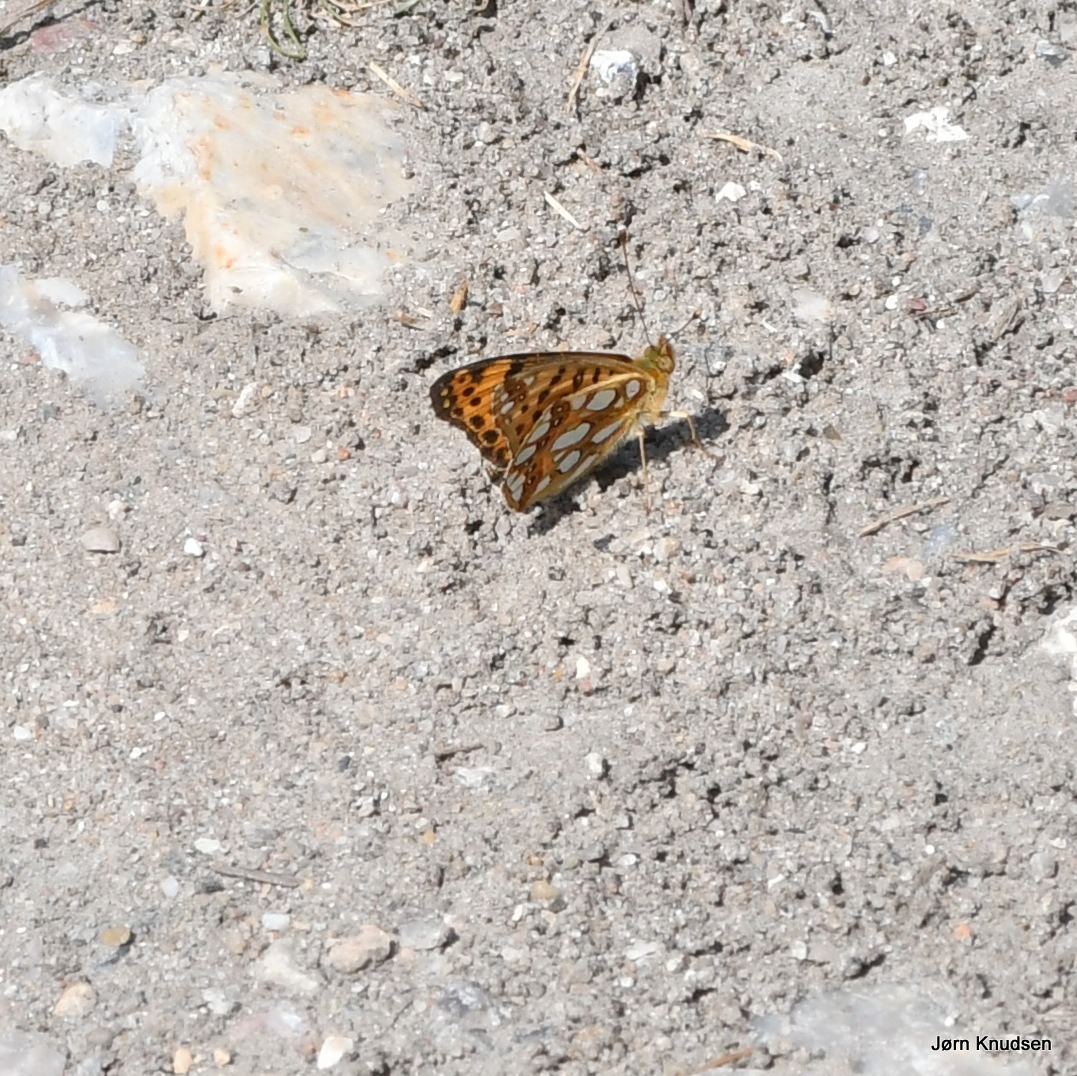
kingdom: Animalia
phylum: Arthropoda
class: Insecta
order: Lepidoptera
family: Nymphalidae
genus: Issoria
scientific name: Issoria lathonia
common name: Storplettet perlemorsommerfugl
